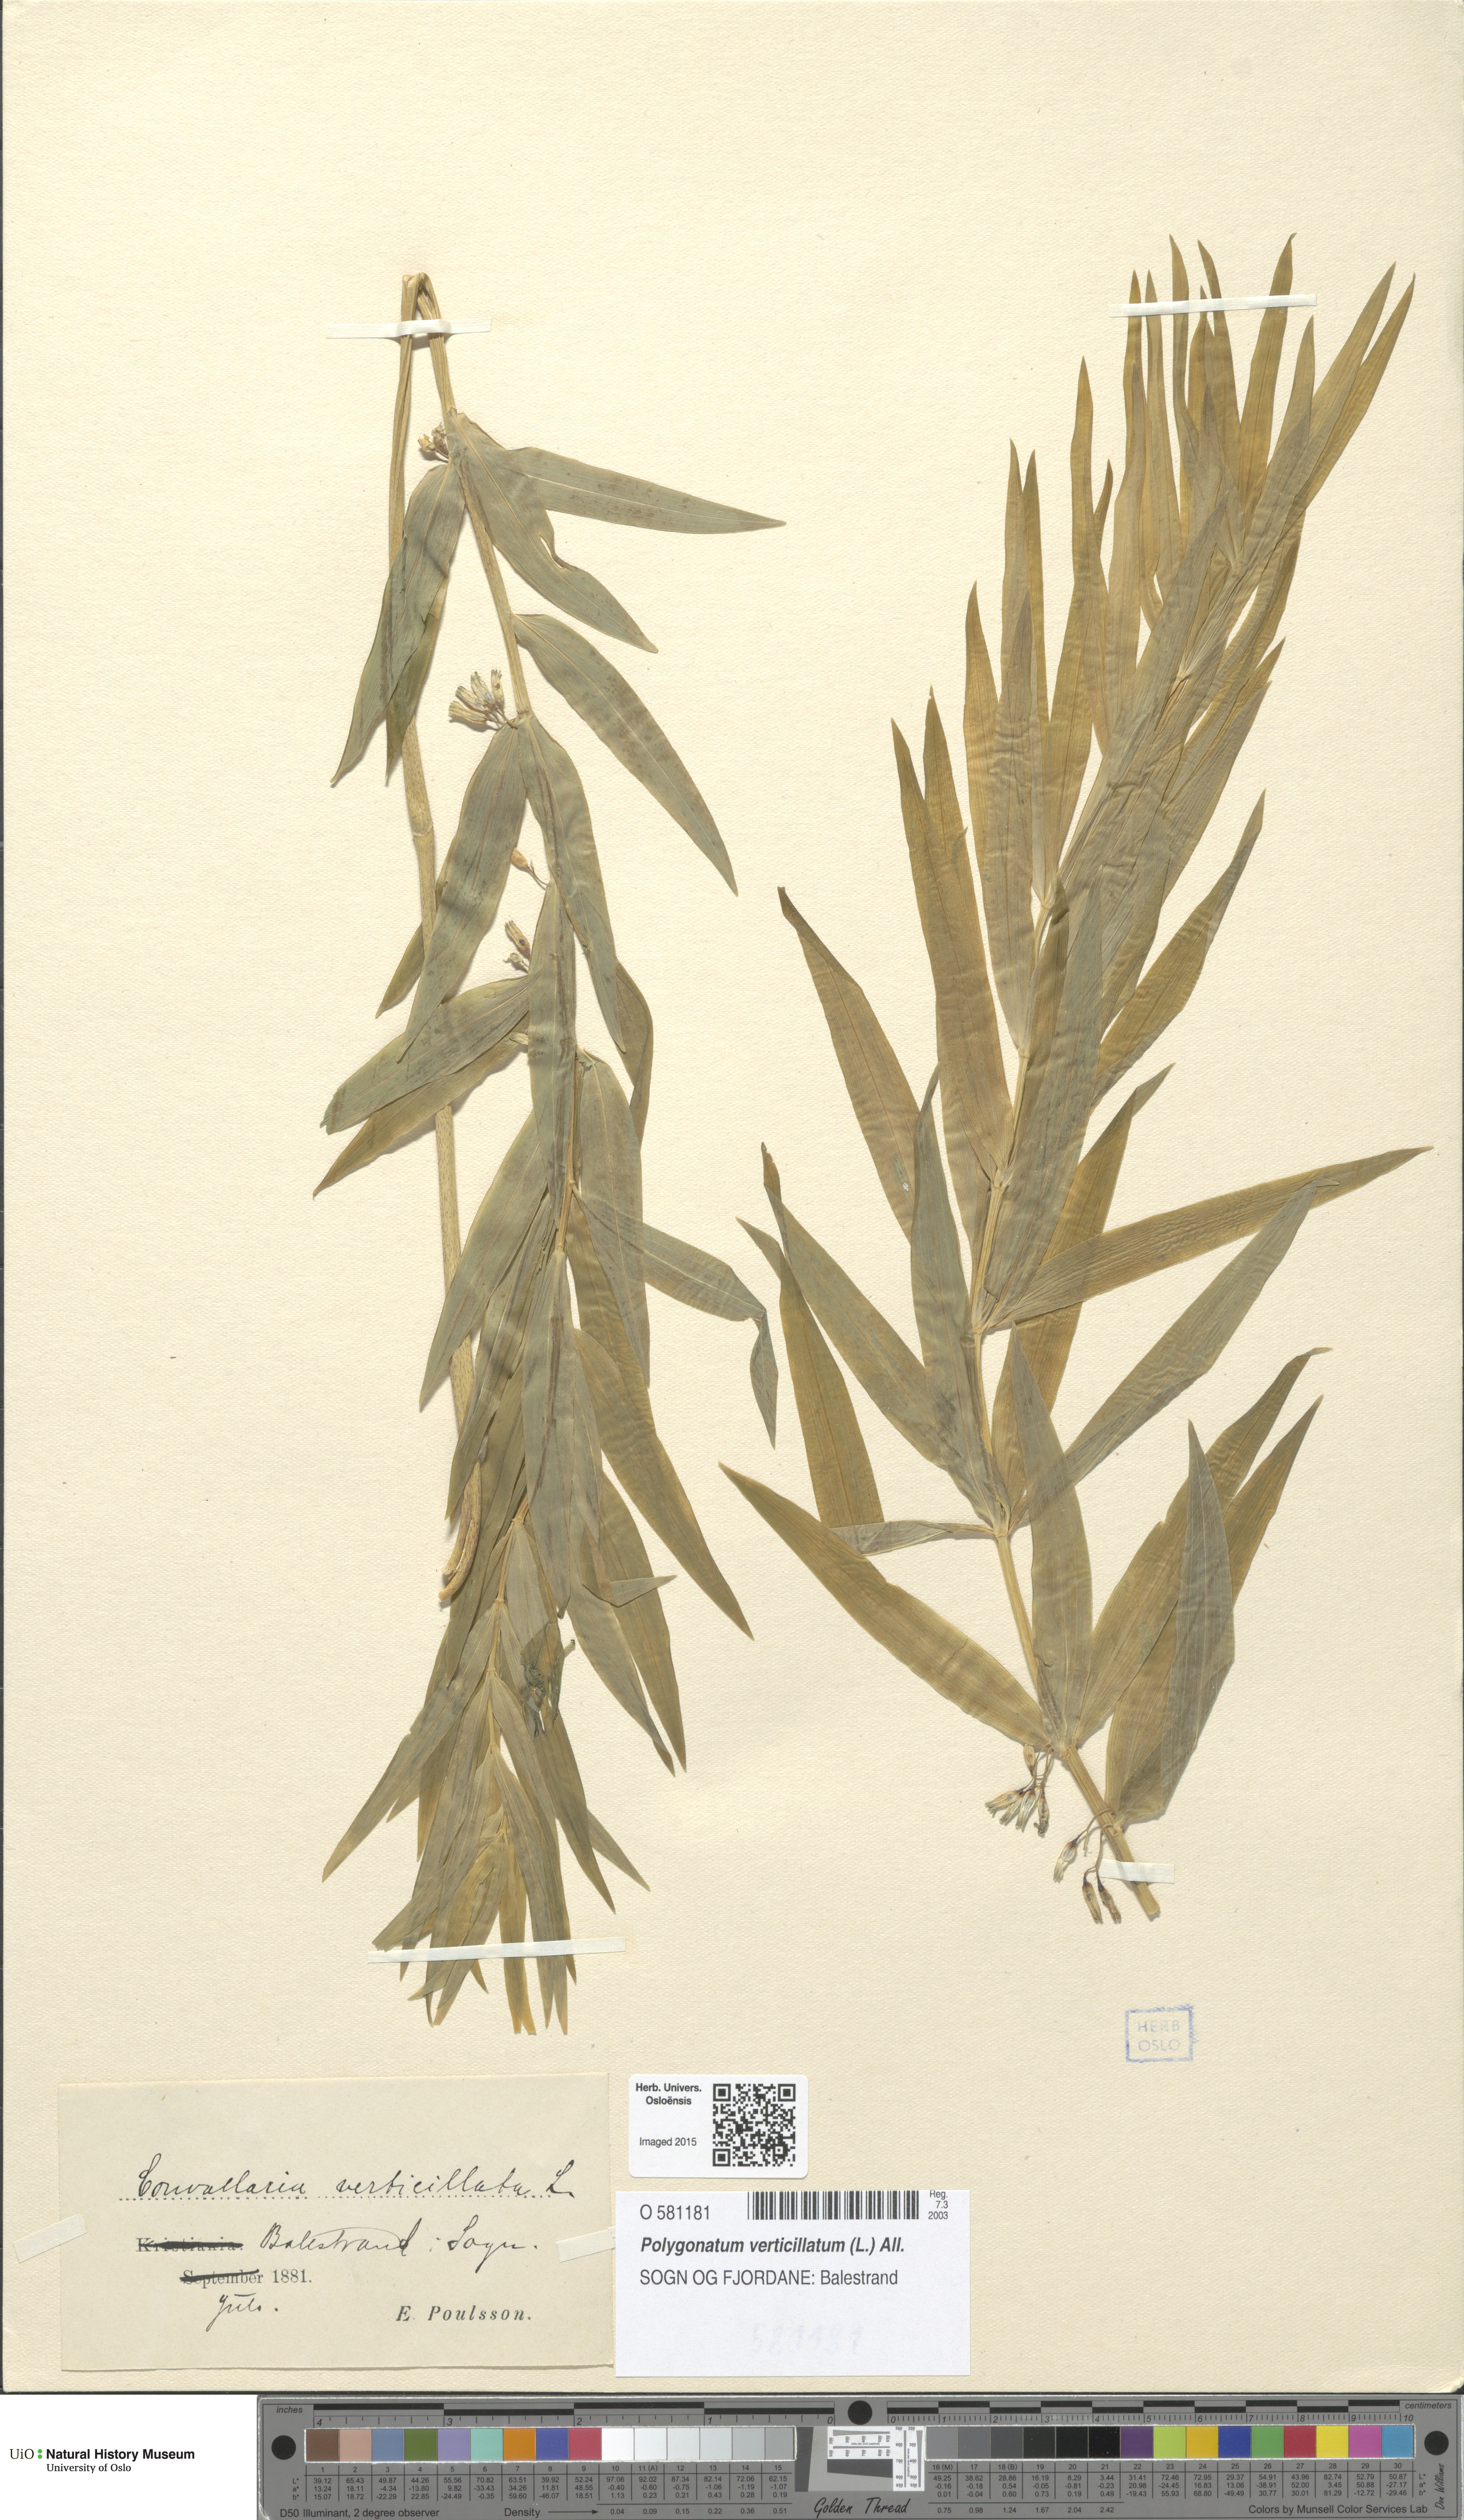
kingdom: Plantae
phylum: Tracheophyta
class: Liliopsida
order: Asparagales
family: Asparagaceae
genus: Polygonatum
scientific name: Polygonatum verticillatum
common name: Whorled solomon's-seal
